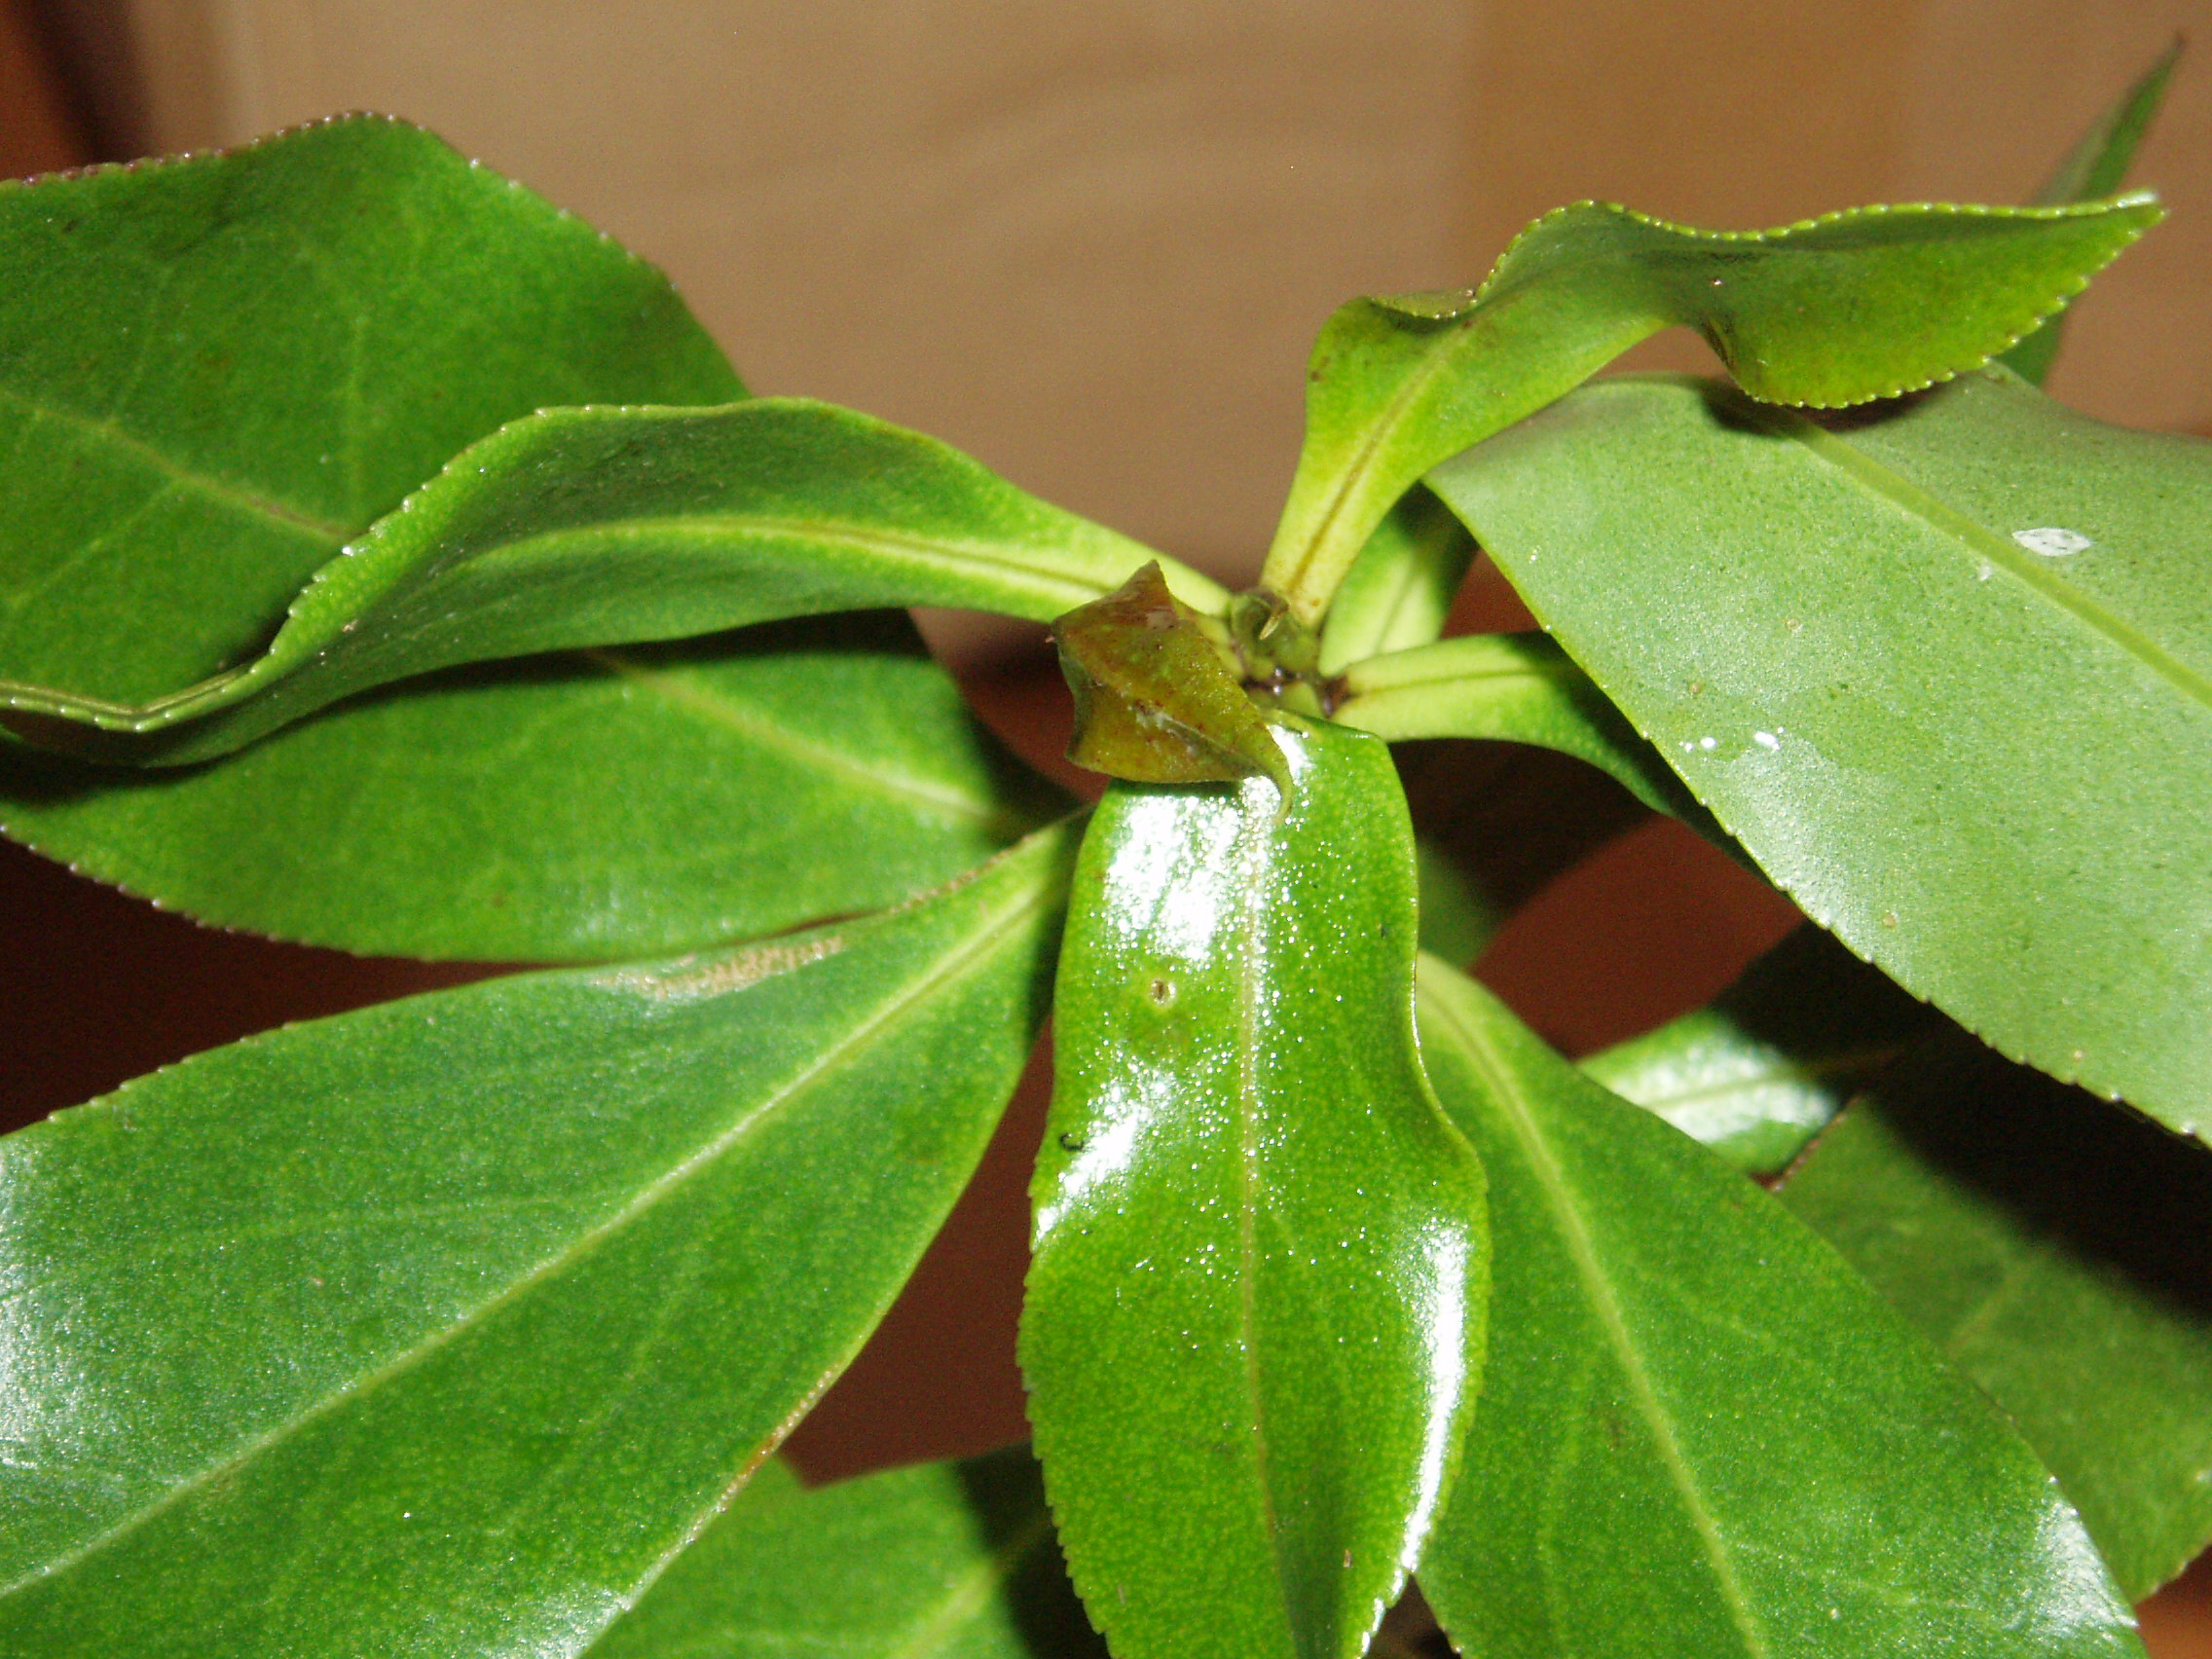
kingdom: Plantae
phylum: Tracheophyta
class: Magnoliopsida
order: Lamiales
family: Scrophulariaceae
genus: Myoporum
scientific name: Myoporum
